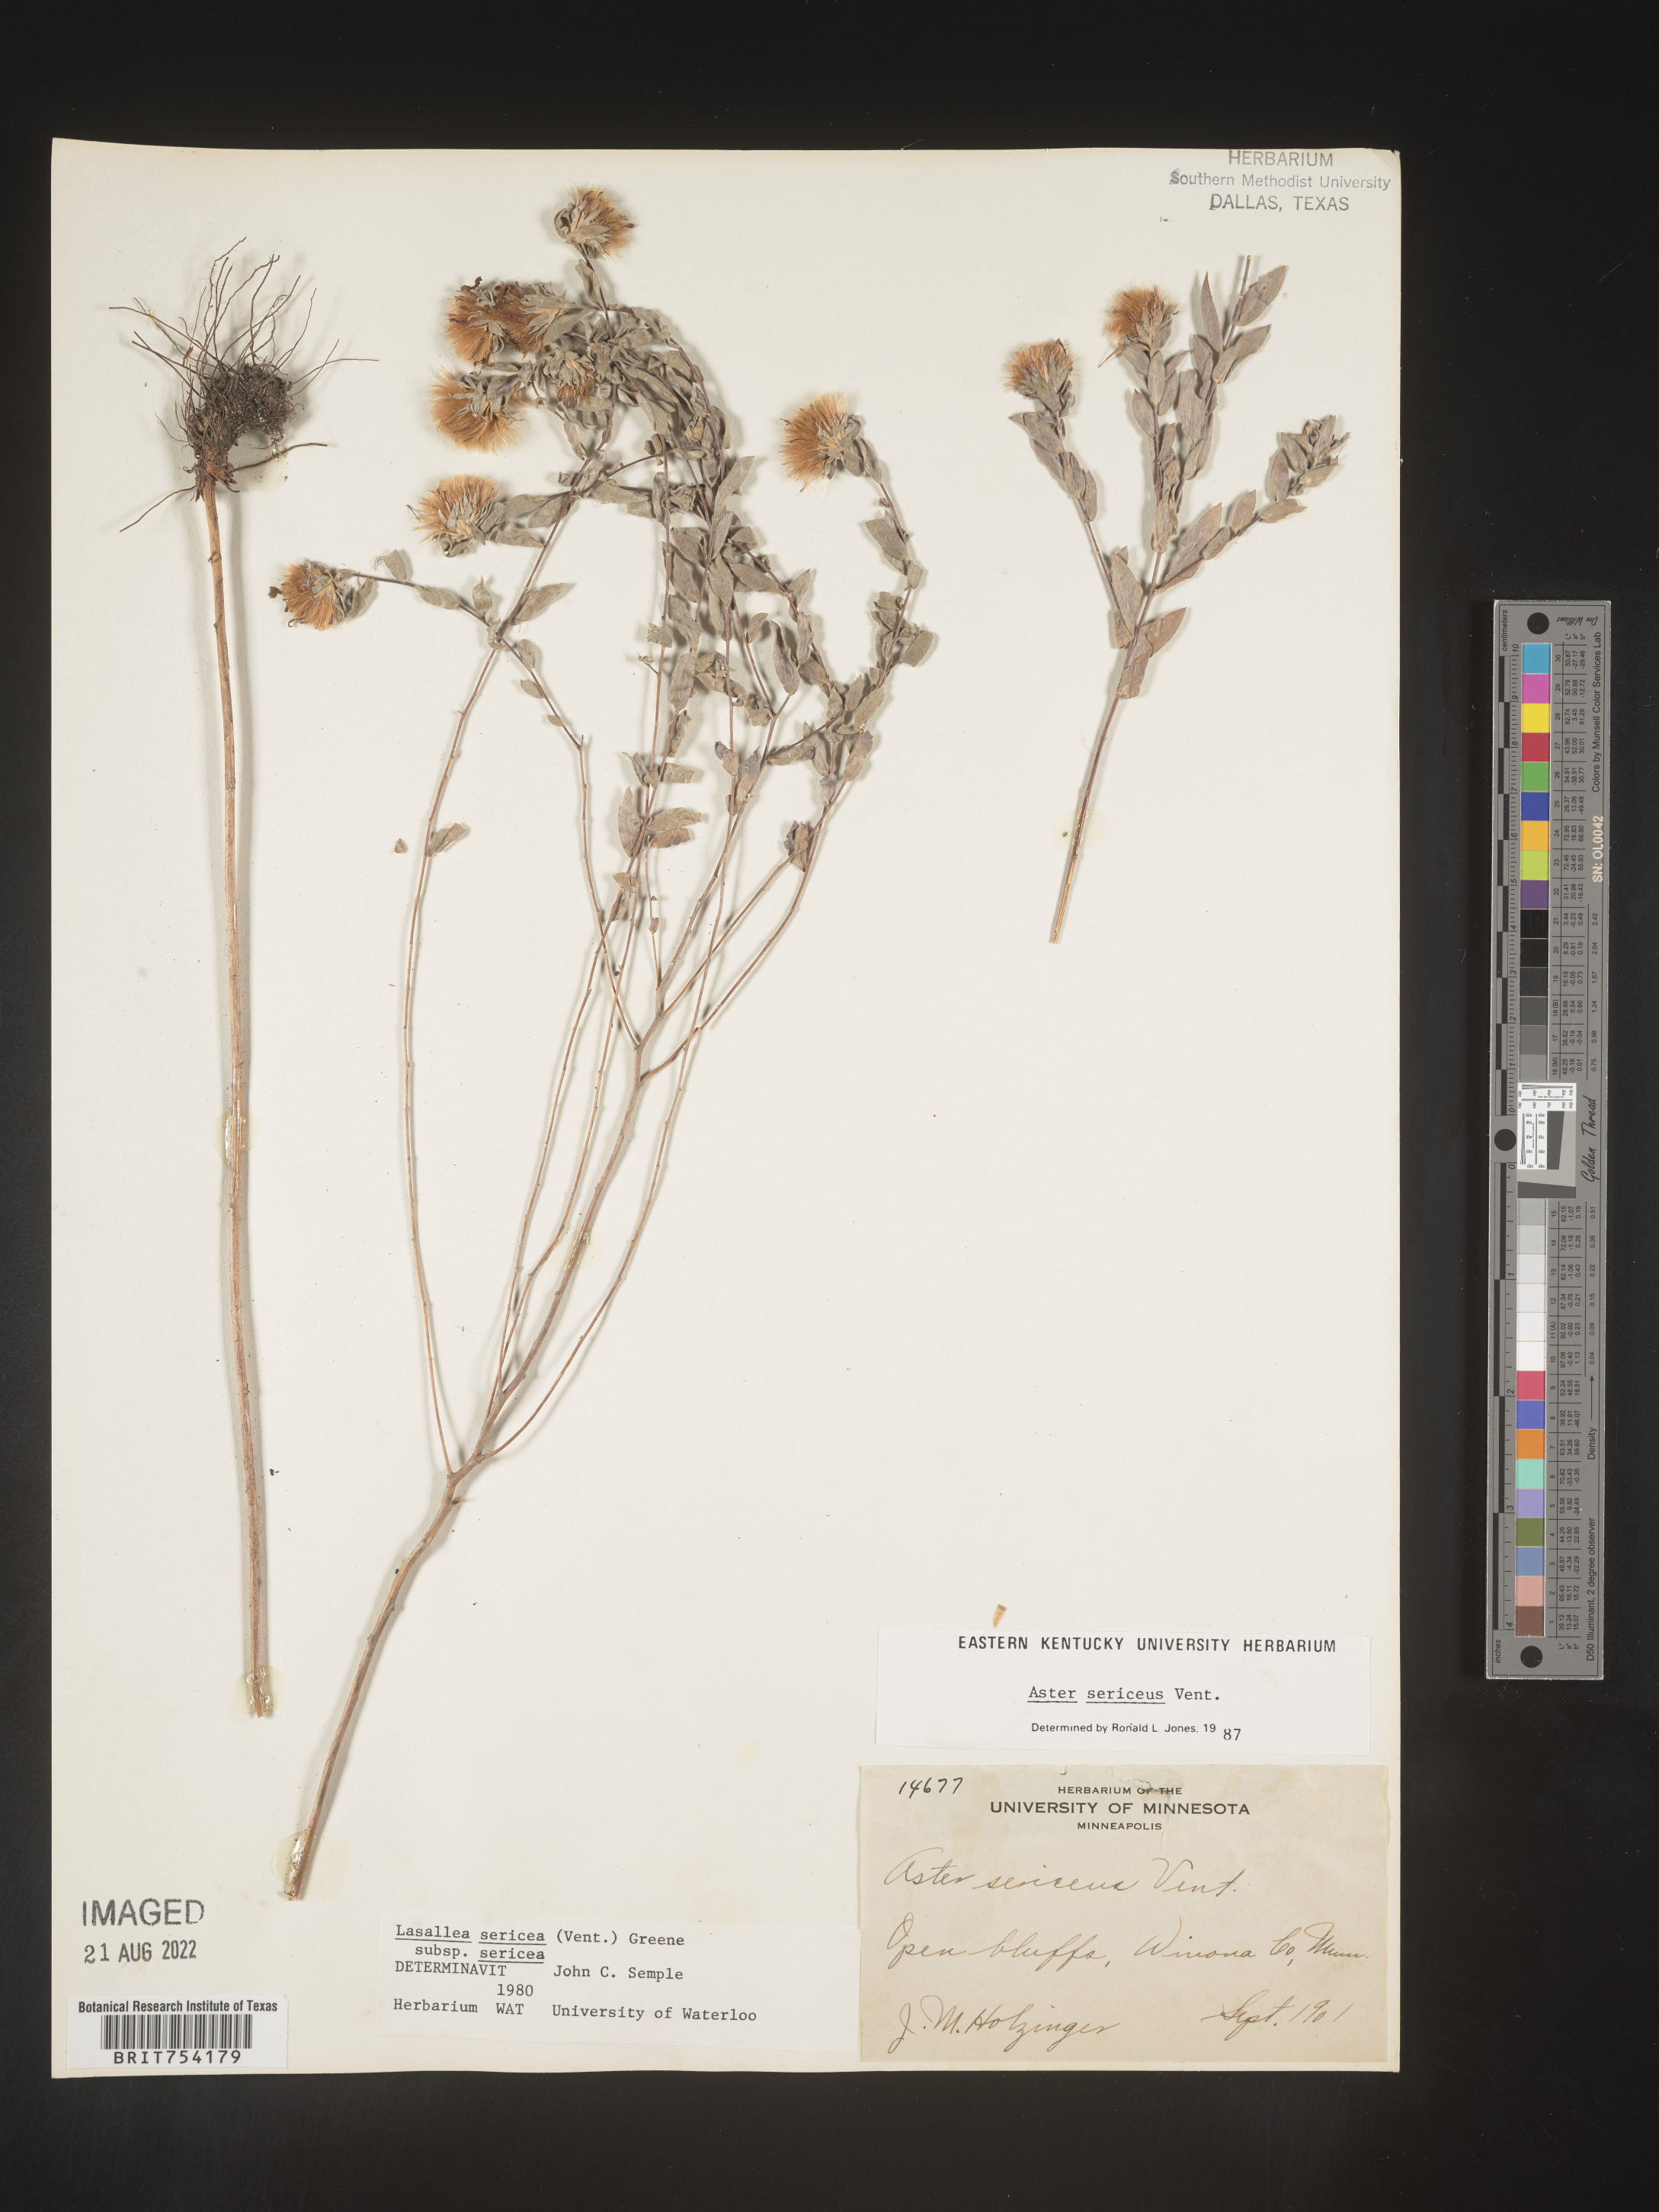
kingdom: Plantae
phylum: Tracheophyta
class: Magnoliopsida
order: Asterales
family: Asteraceae
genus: Symphyotrichum
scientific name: Symphyotrichum sericeum
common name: Silky aster
